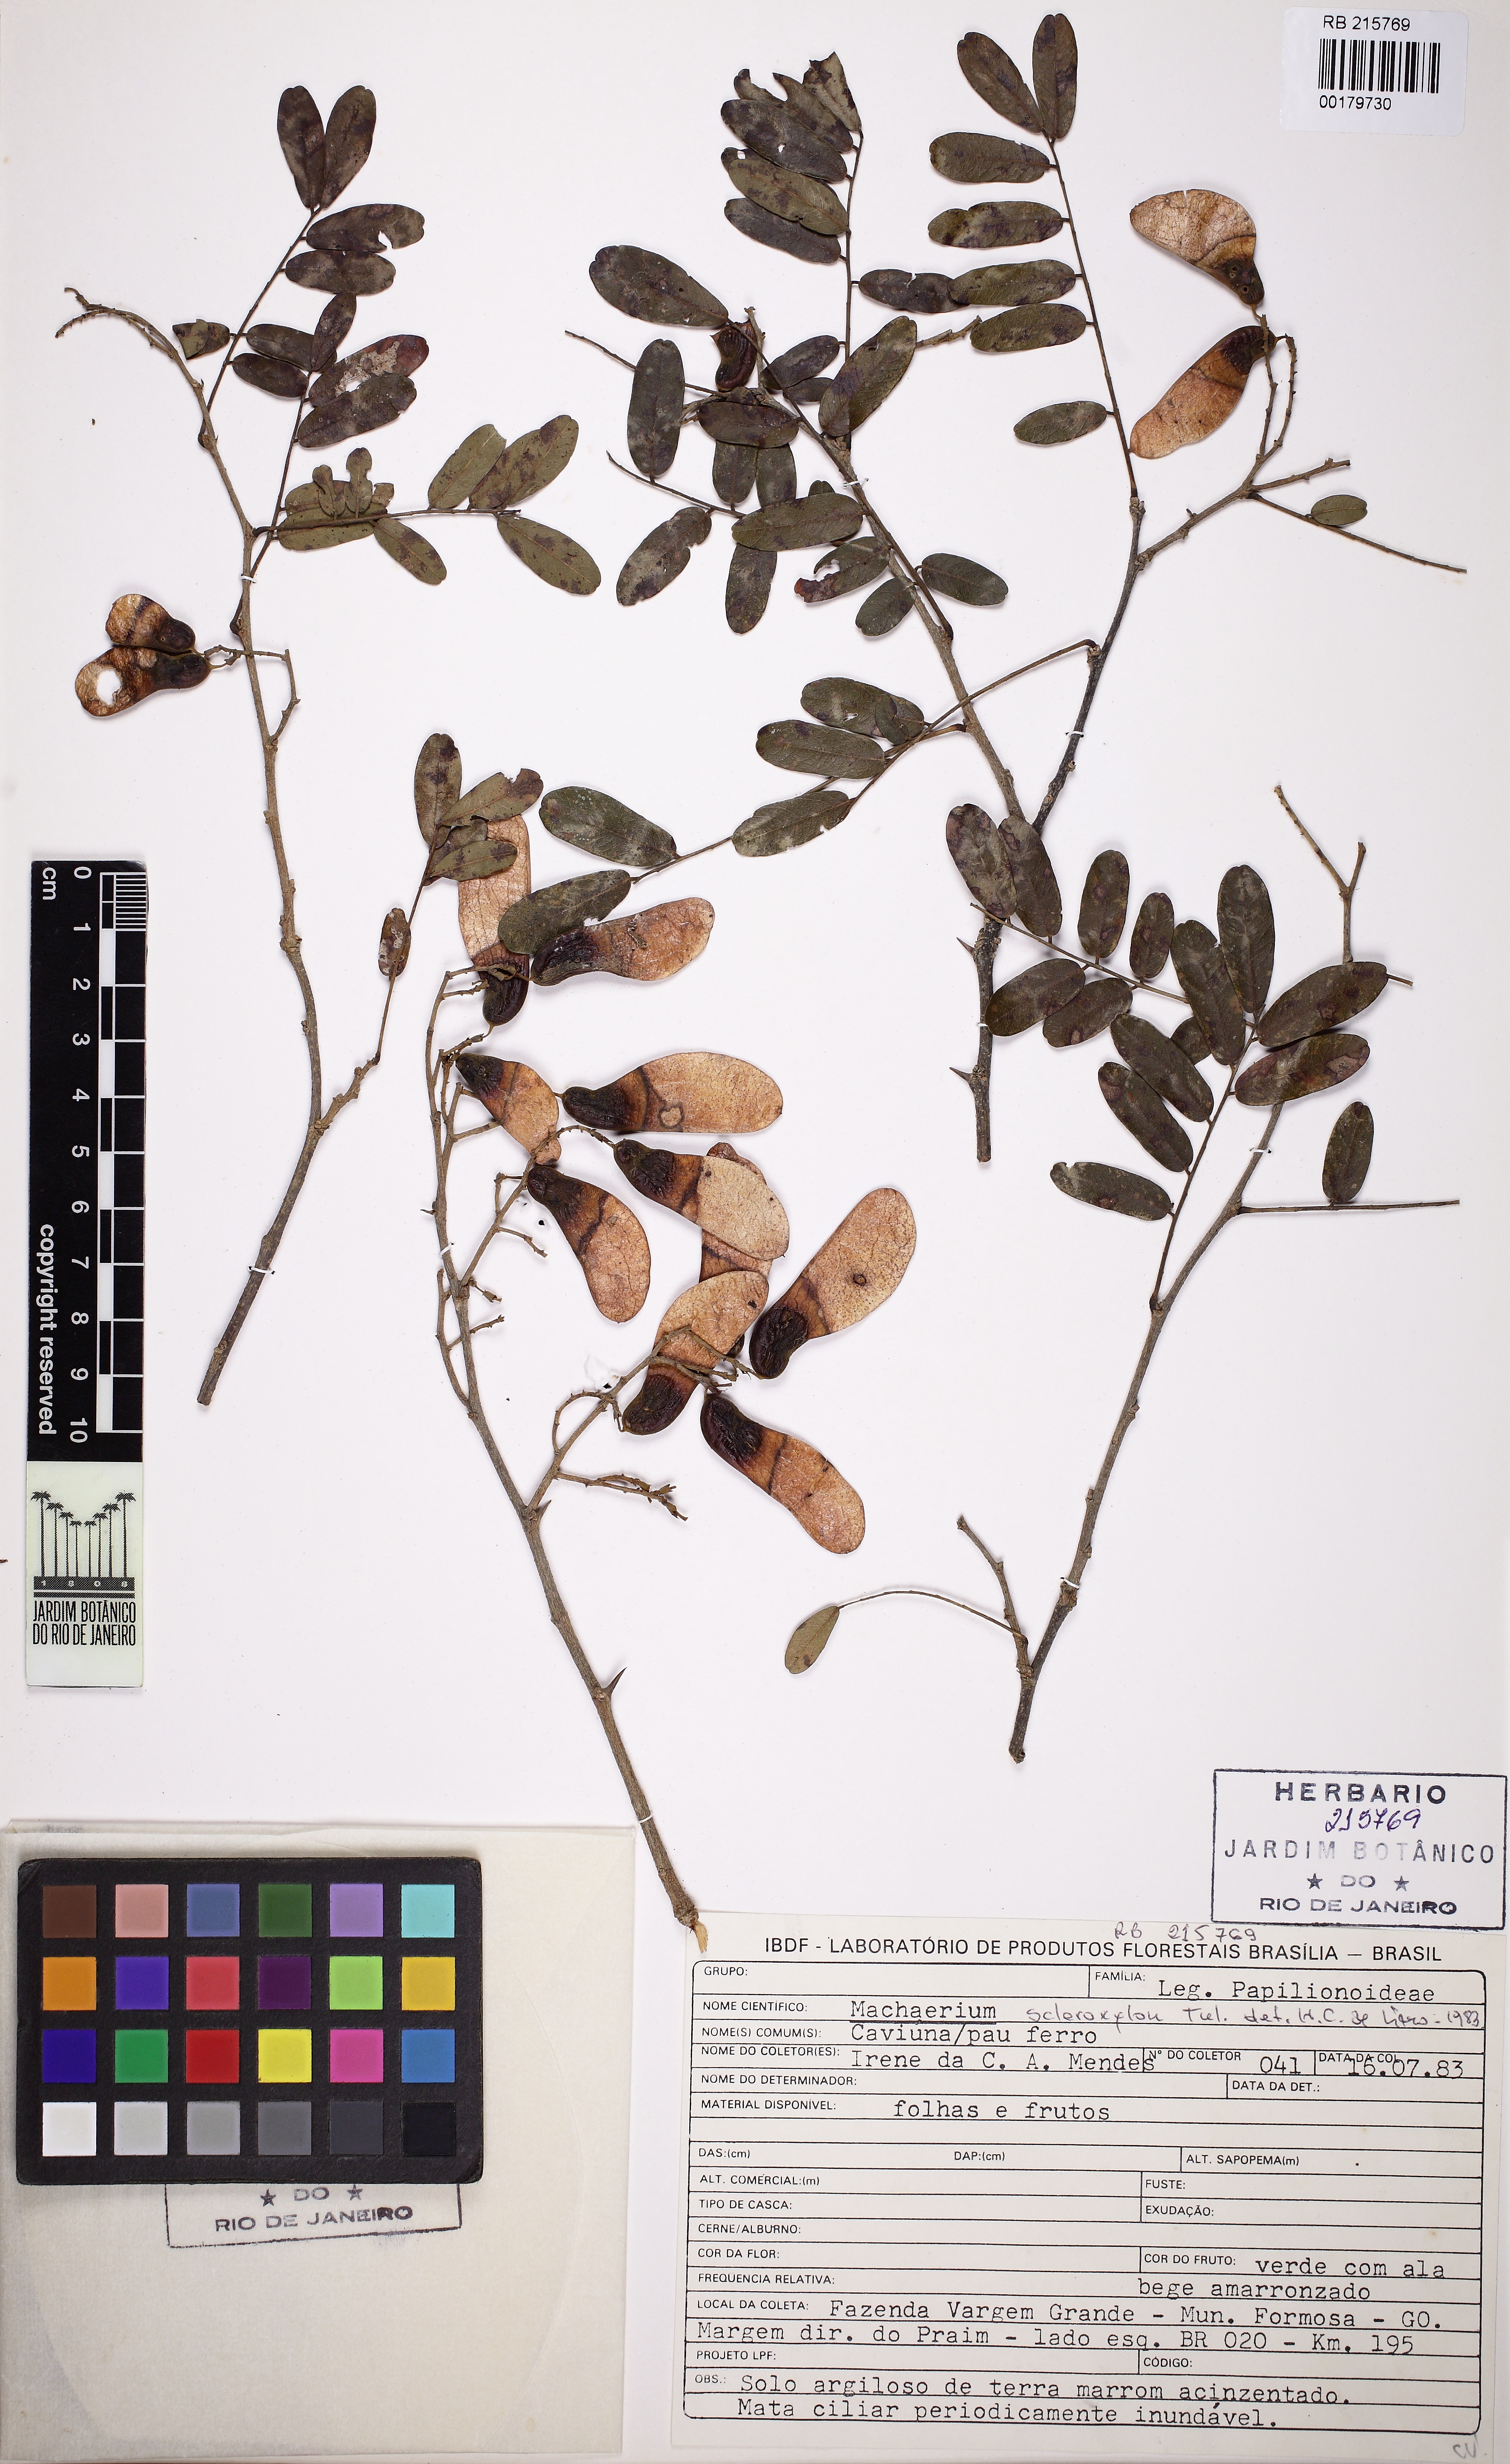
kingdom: Plantae
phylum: Tracheophyta
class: Magnoliopsida
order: Fabales
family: Fabaceae
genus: Machaerium
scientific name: Machaerium scleroxylon
